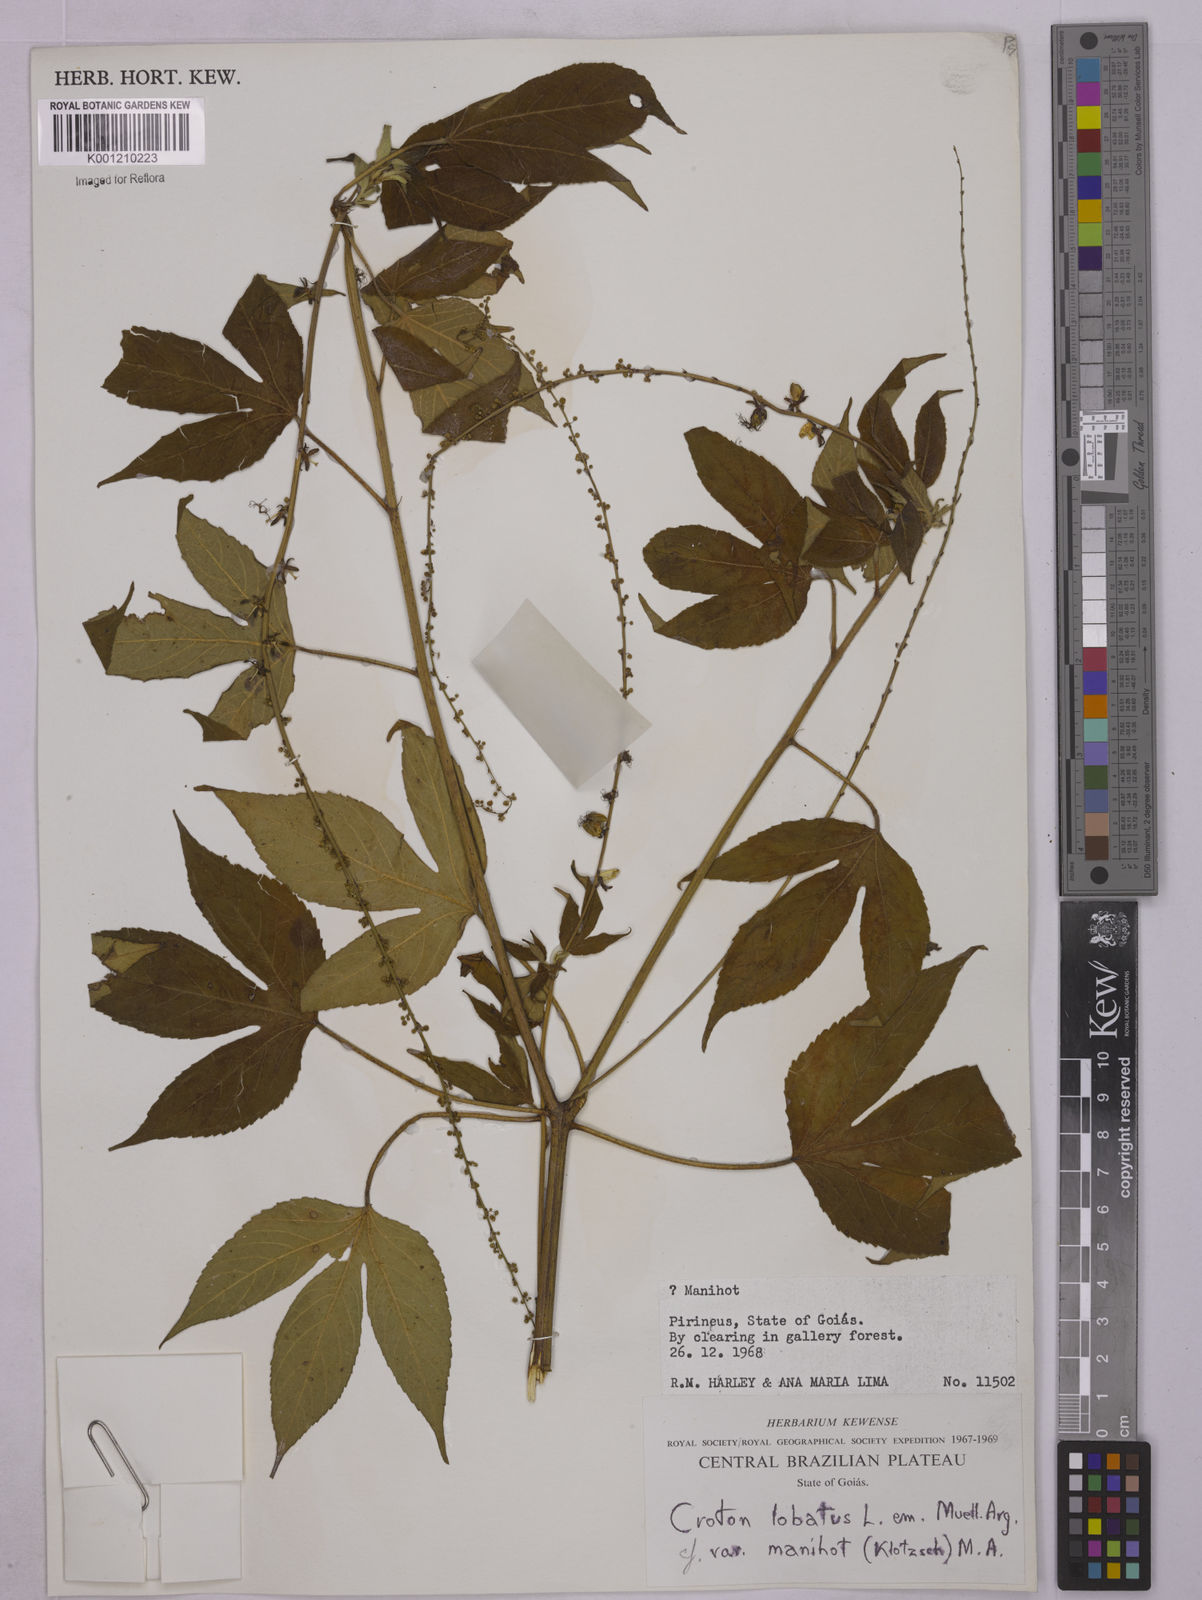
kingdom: Plantae
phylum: Tracheophyta
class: Magnoliopsida
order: Malpighiales
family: Euphorbiaceae
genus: Astraea
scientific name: Astraea lobata
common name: Lobed croton
